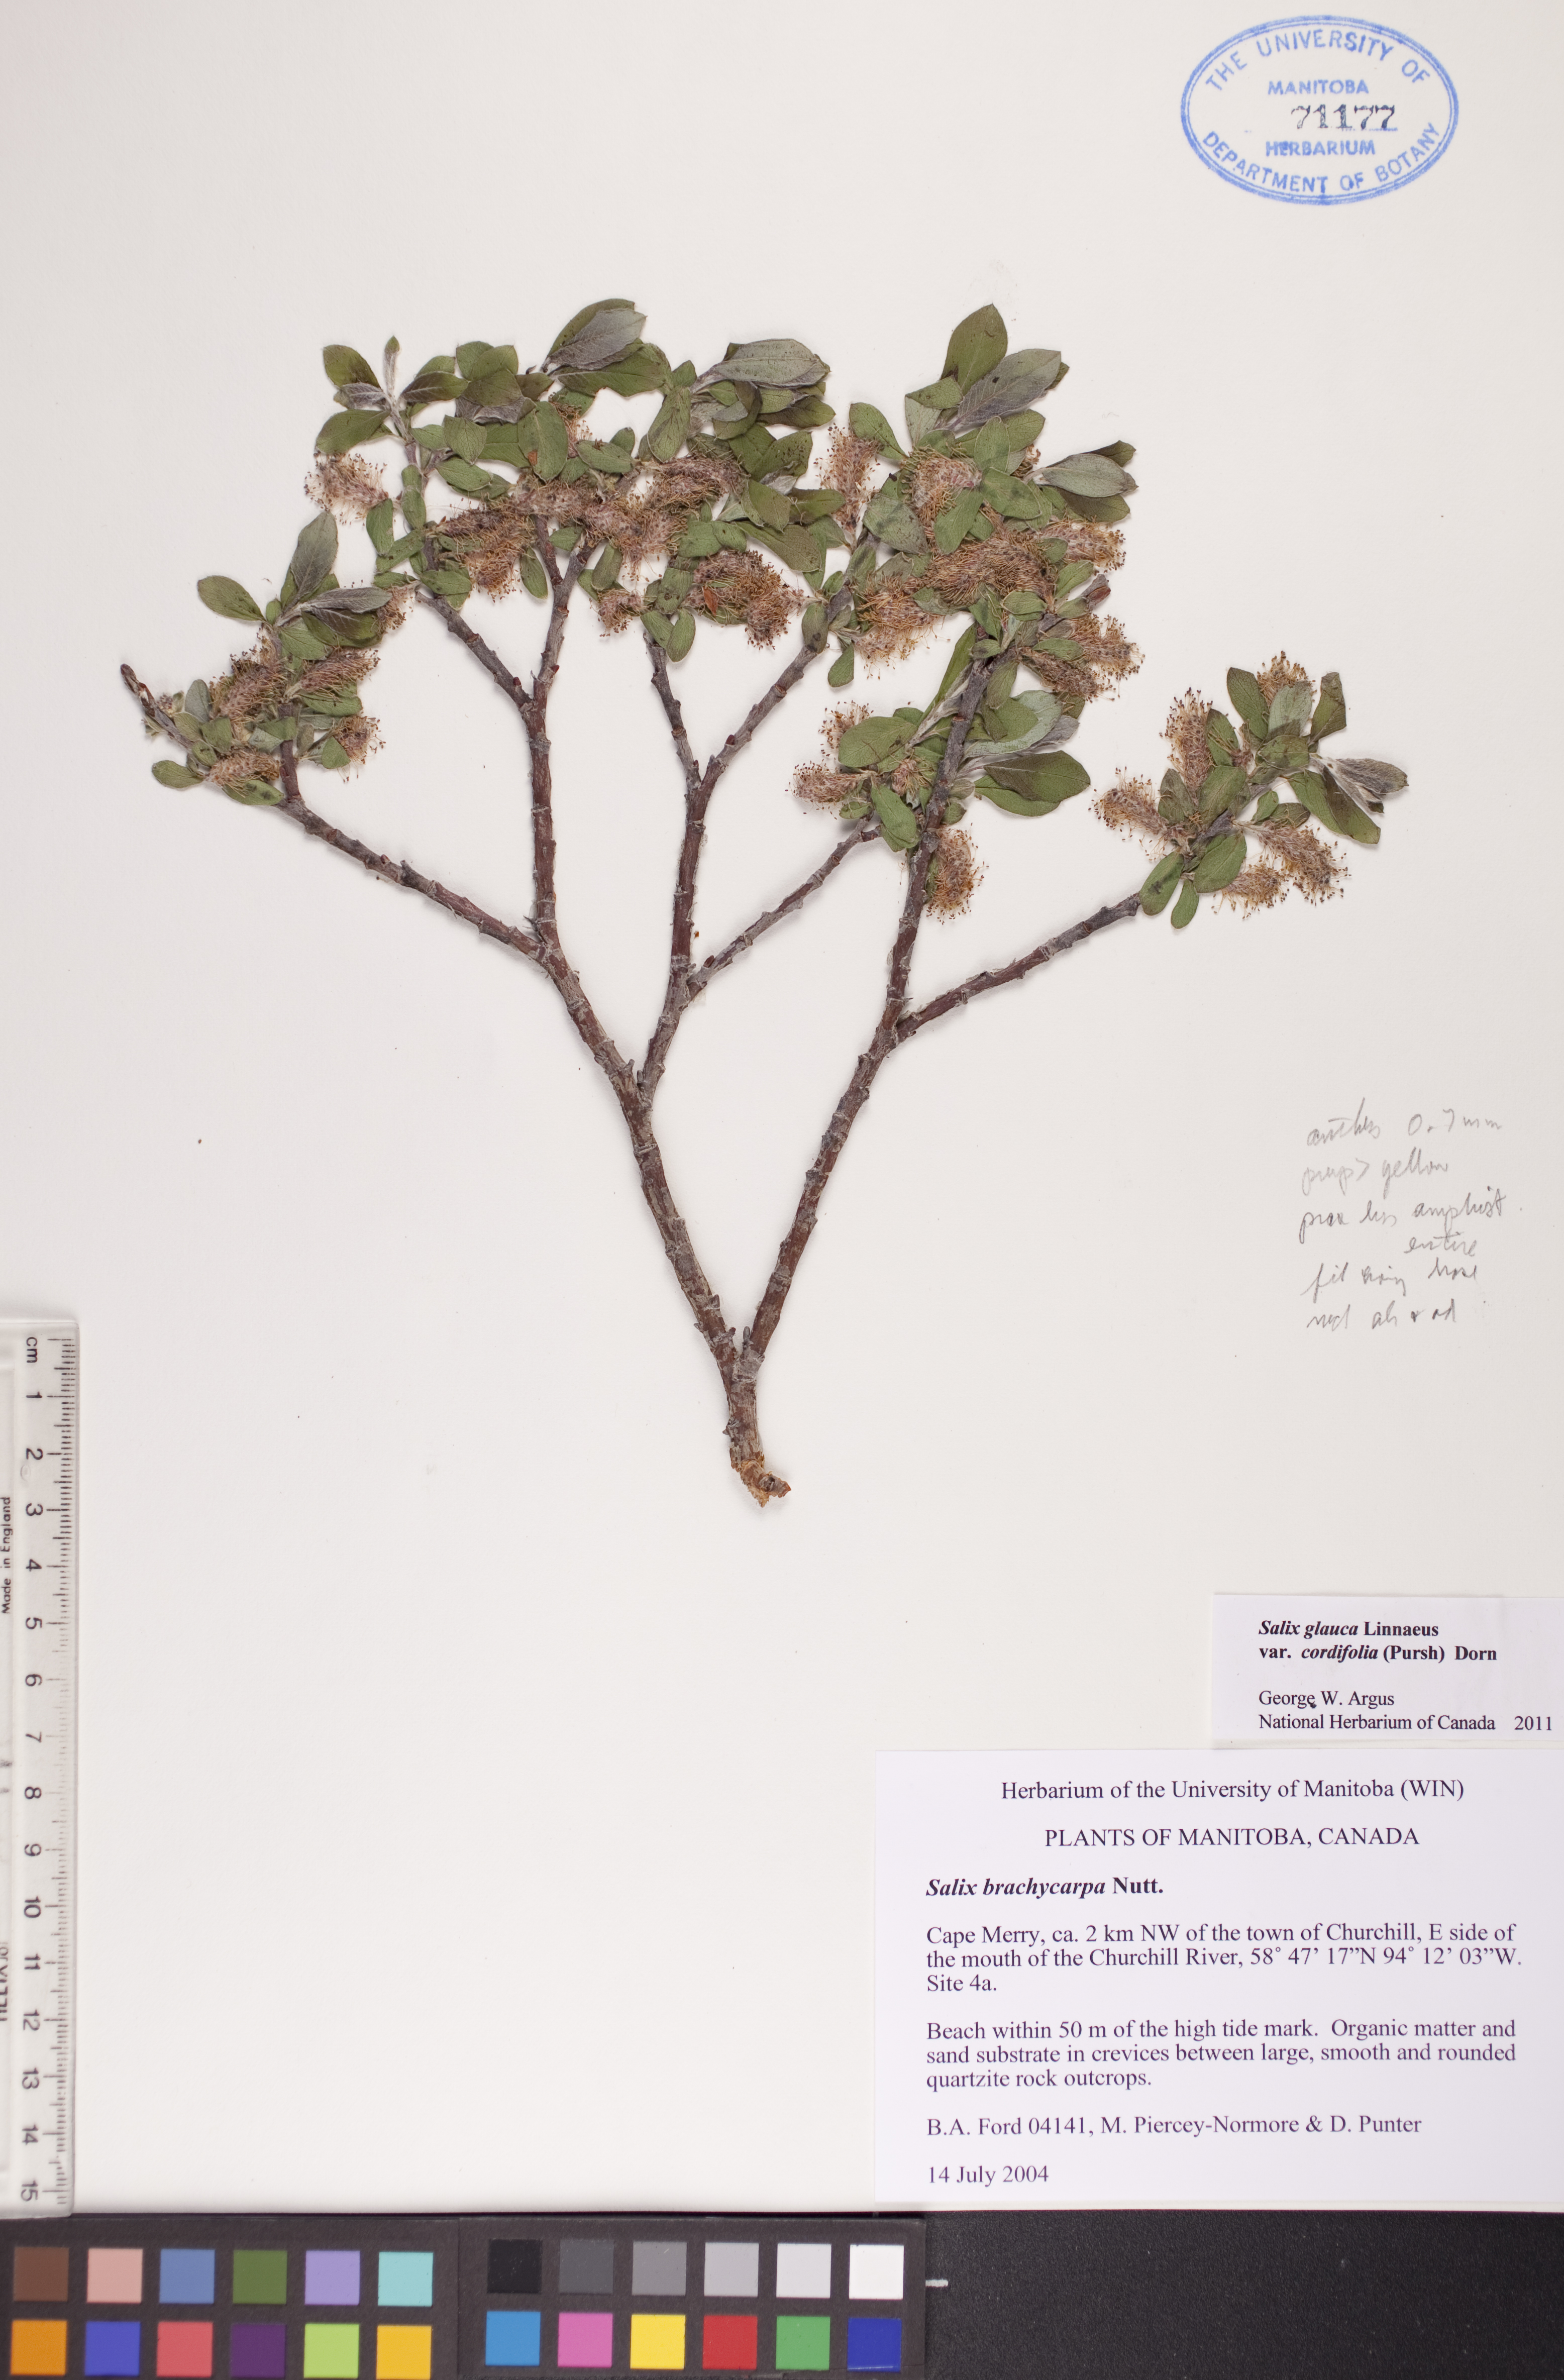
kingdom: Plantae
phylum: Tracheophyta
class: Magnoliopsida
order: Malpighiales
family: Salicaceae
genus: Salix
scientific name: Salix glauca
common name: Glaucous willow
